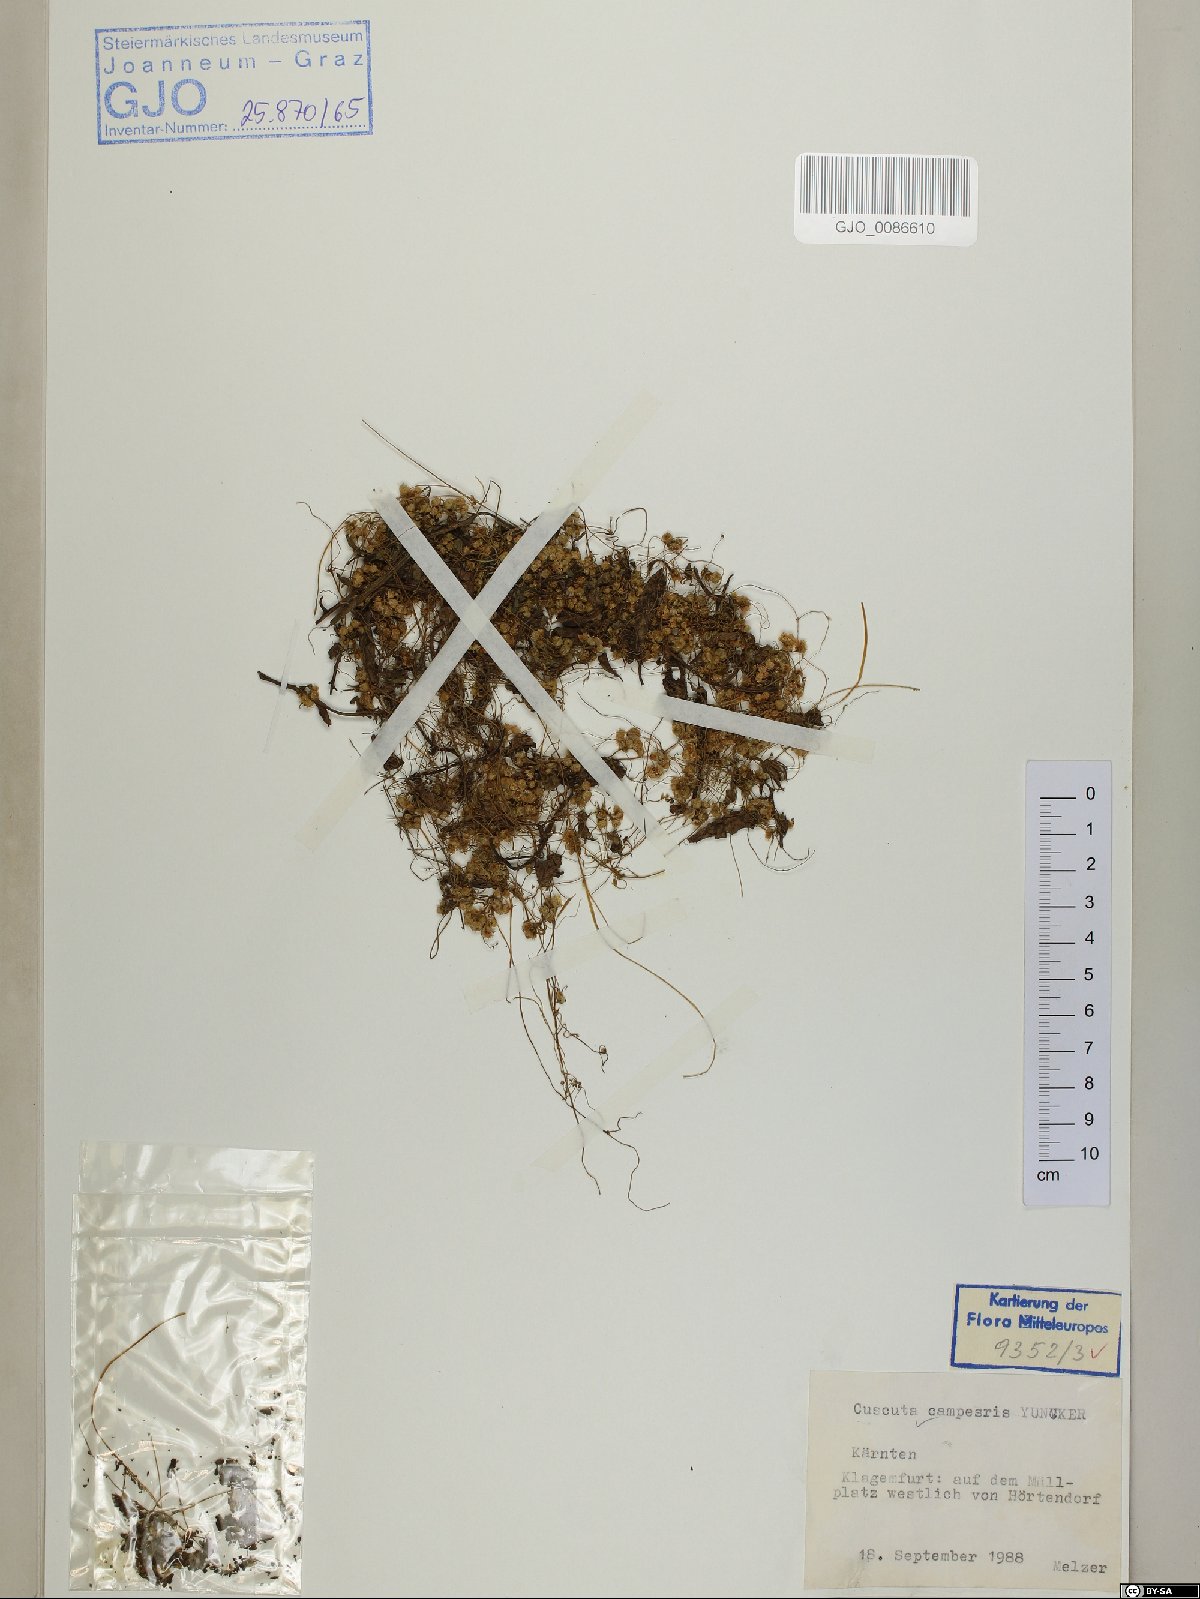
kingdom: Plantae
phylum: Tracheophyta
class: Magnoliopsida
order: Solanales
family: Convolvulaceae
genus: Cuscuta
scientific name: Cuscuta campestris
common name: Yellow dodder
